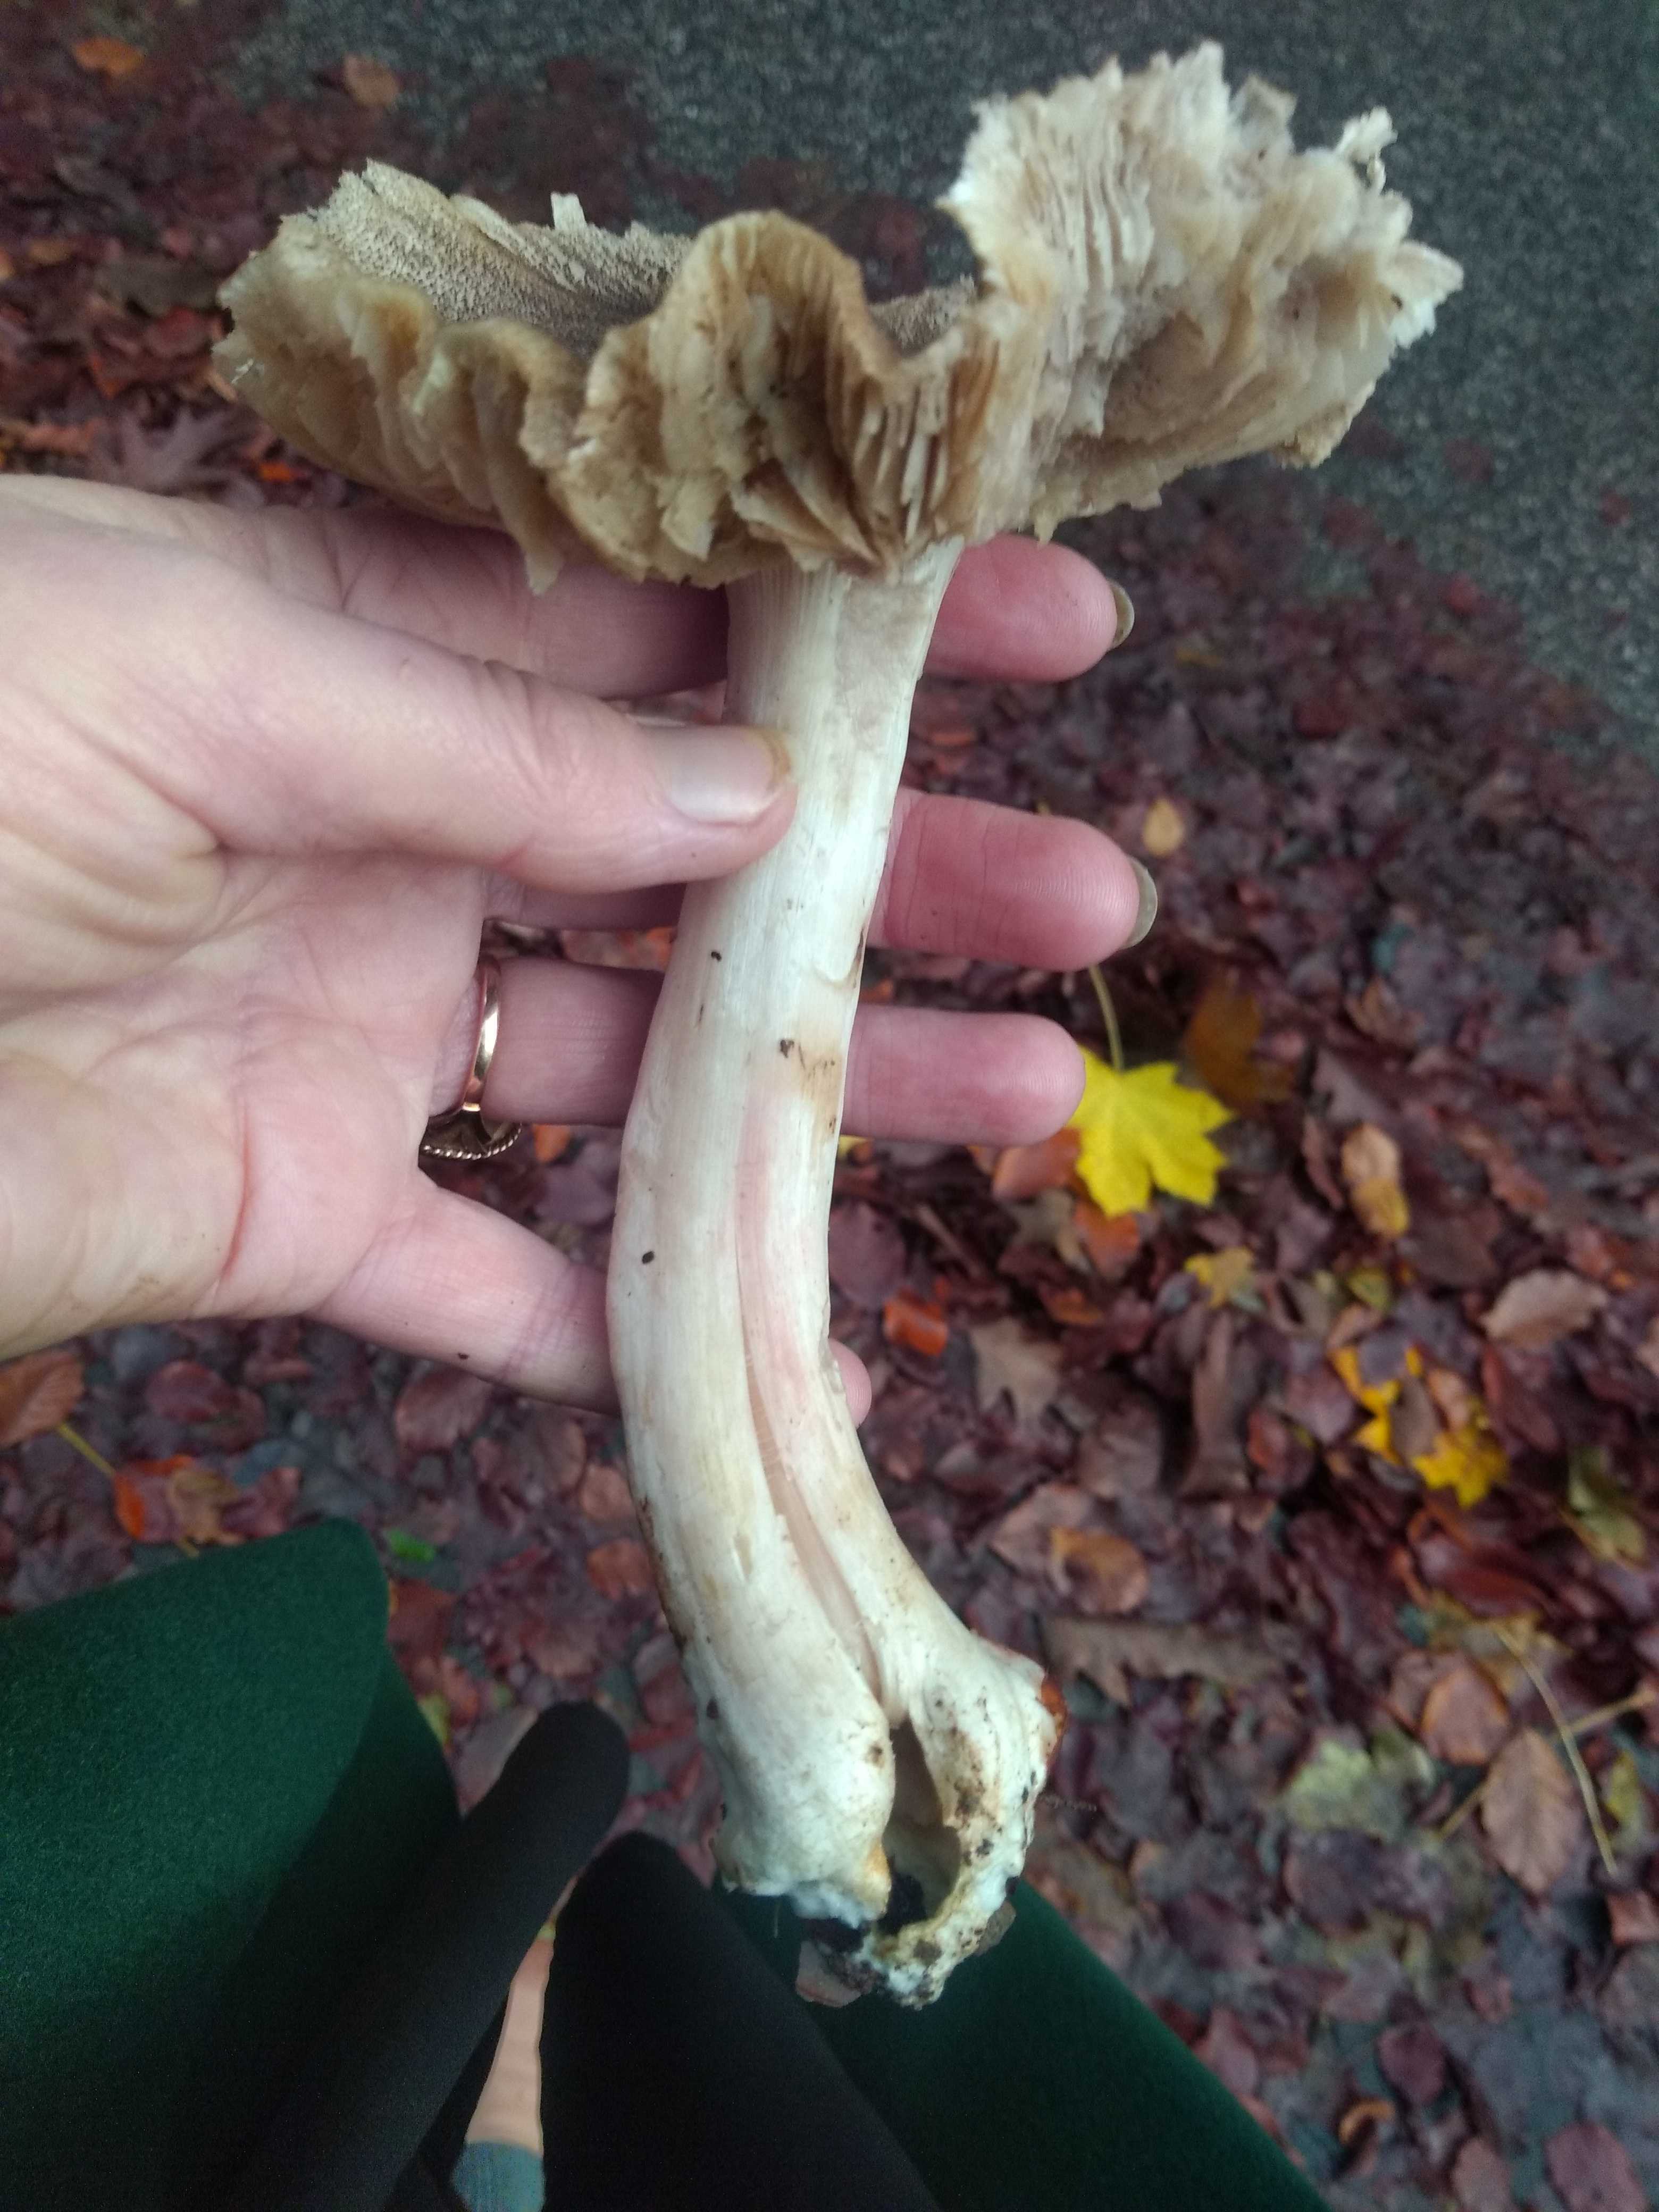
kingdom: Fungi
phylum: Basidiomycota
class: Agaricomycetes
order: Agaricales
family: Tricholomataceae
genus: Tricholoma
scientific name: Tricholoma orirubens
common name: rødbladet ridderhat
